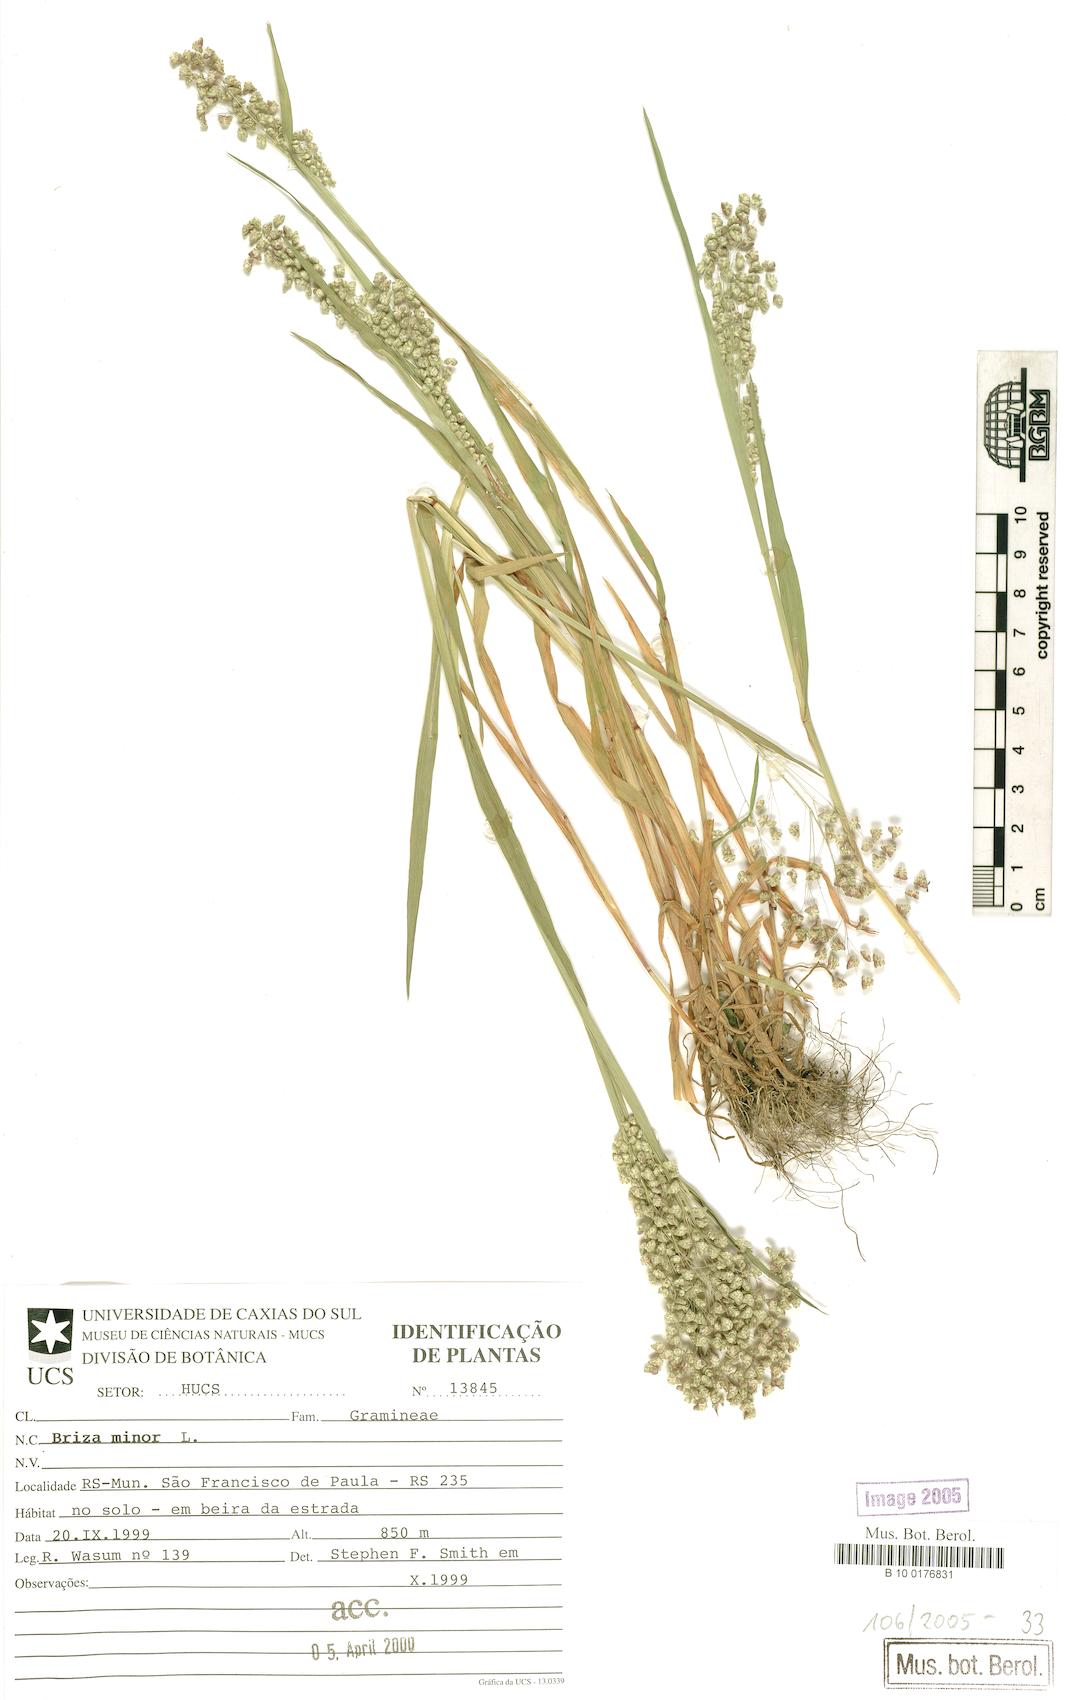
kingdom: Plantae
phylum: Tracheophyta
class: Liliopsida
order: Poales
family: Poaceae
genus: Briza
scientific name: Briza minor
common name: Lesser quaking-grass
